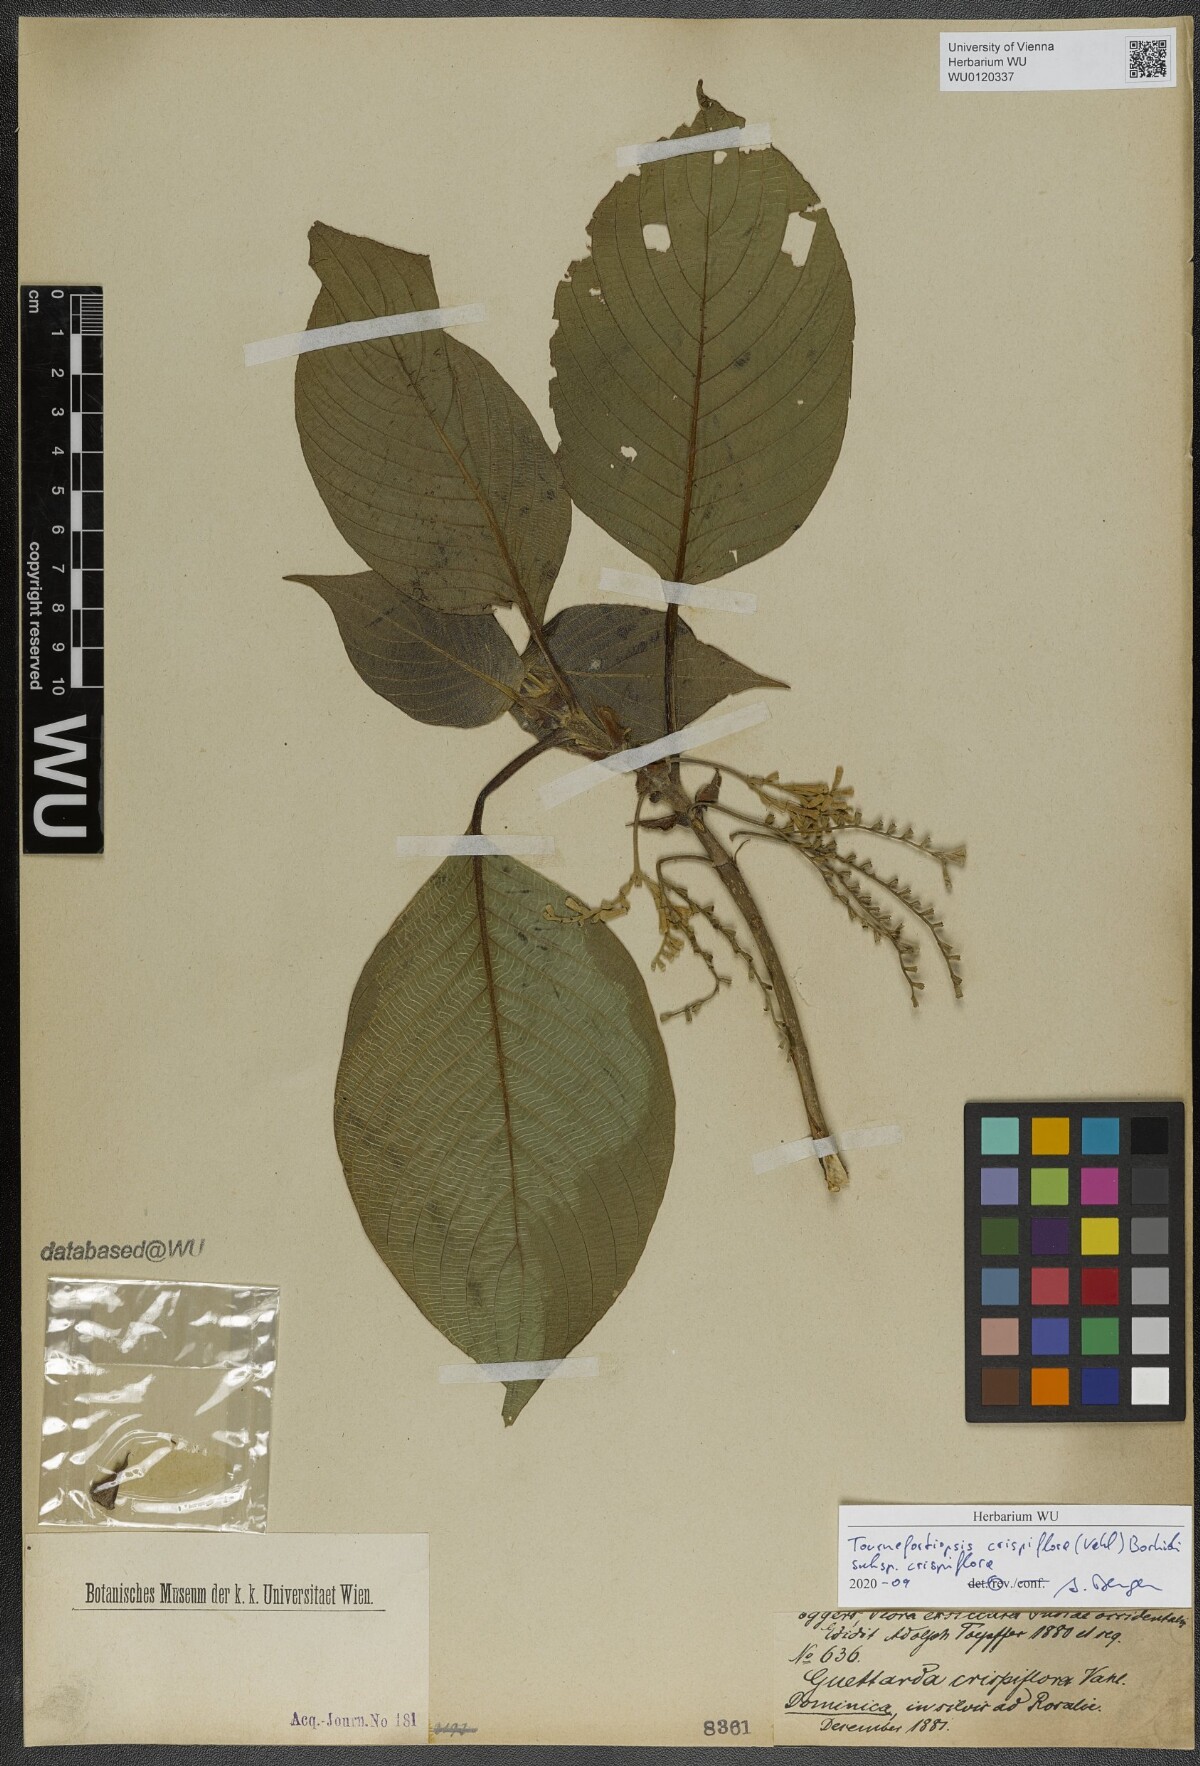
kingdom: Plantae
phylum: Tracheophyta
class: Magnoliopsida
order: Gentianales
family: Rubiaceae
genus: Tournefortiopsis
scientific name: Tournefortiopsis crispiflora
